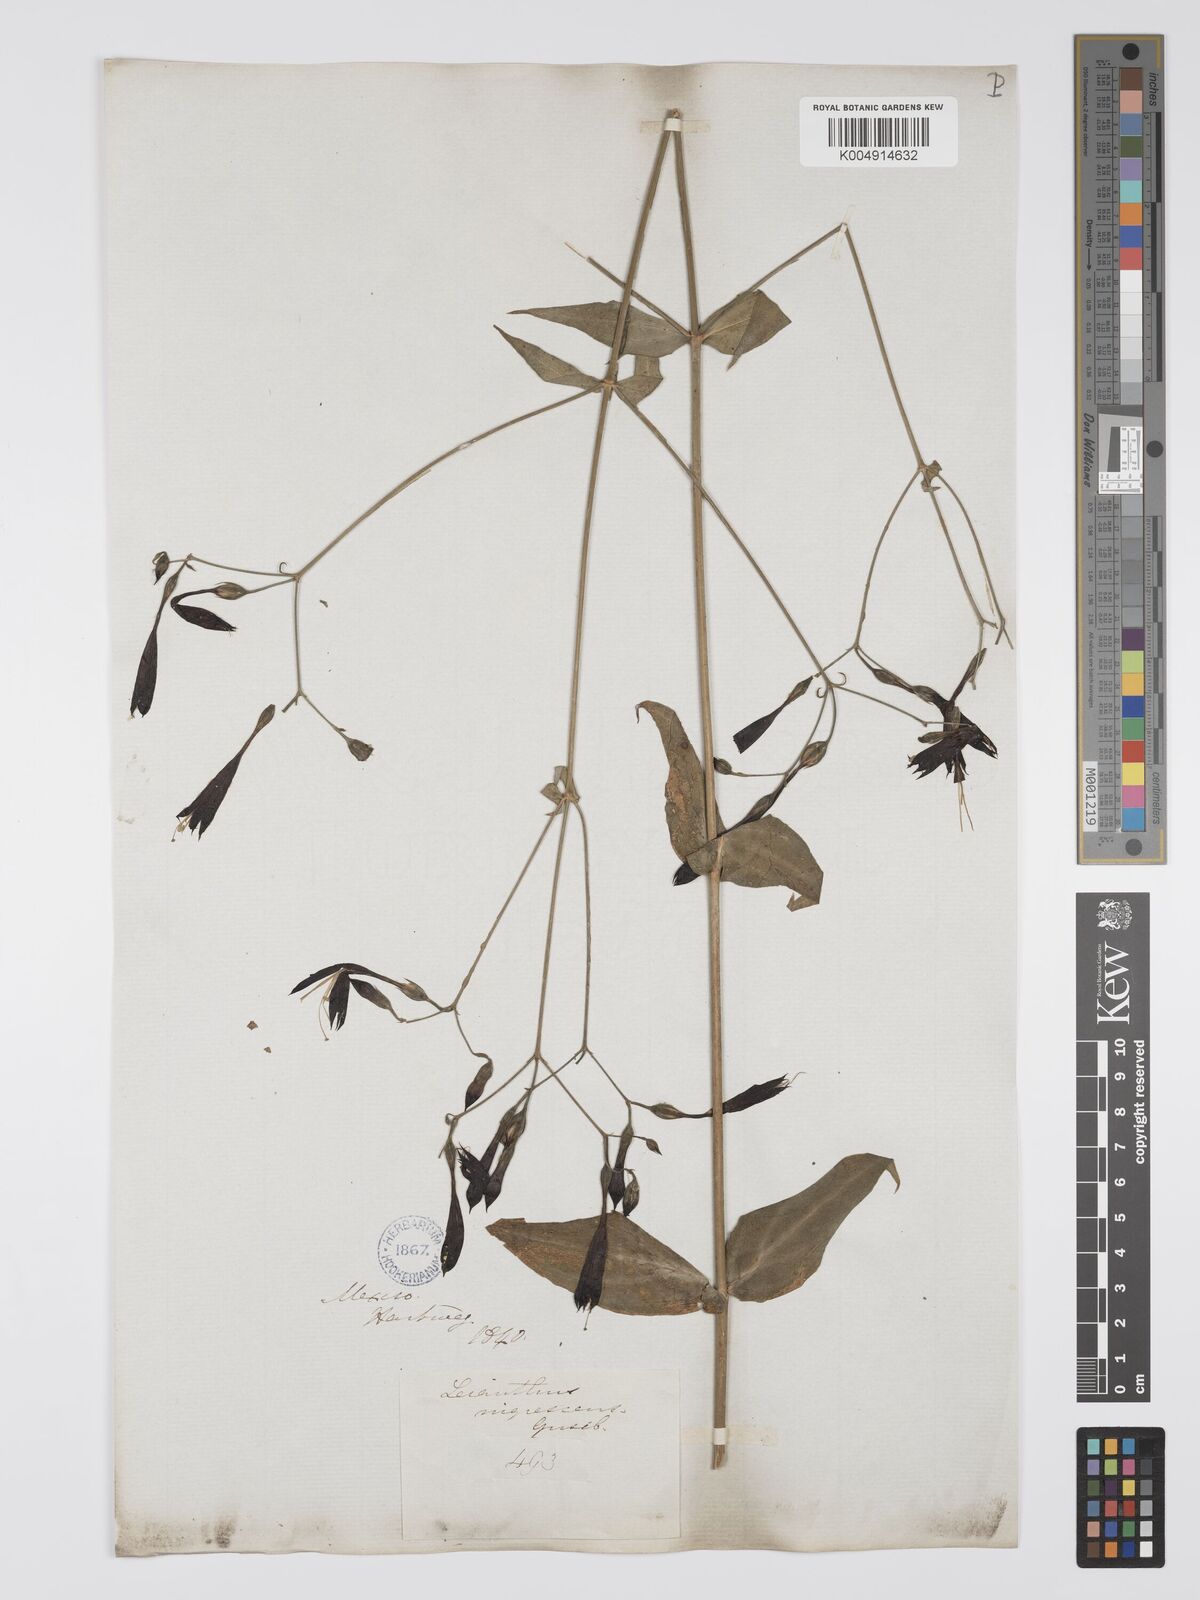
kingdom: Plantae
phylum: Tracheophyta
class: Magnoliopsida
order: Gentianales
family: Gentianaceae
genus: Lisianthius
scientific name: Lisianthius cuspidatus
